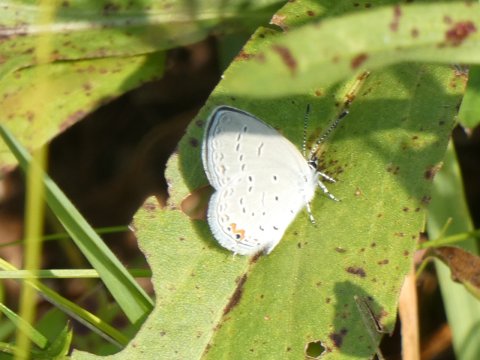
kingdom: Animalia
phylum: Arthropoda
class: Insecta
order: Lepidoptera
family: Lycaenidae
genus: Elkalyce
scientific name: Elkalyce comyntas
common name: Eastern Tailed-Blue
